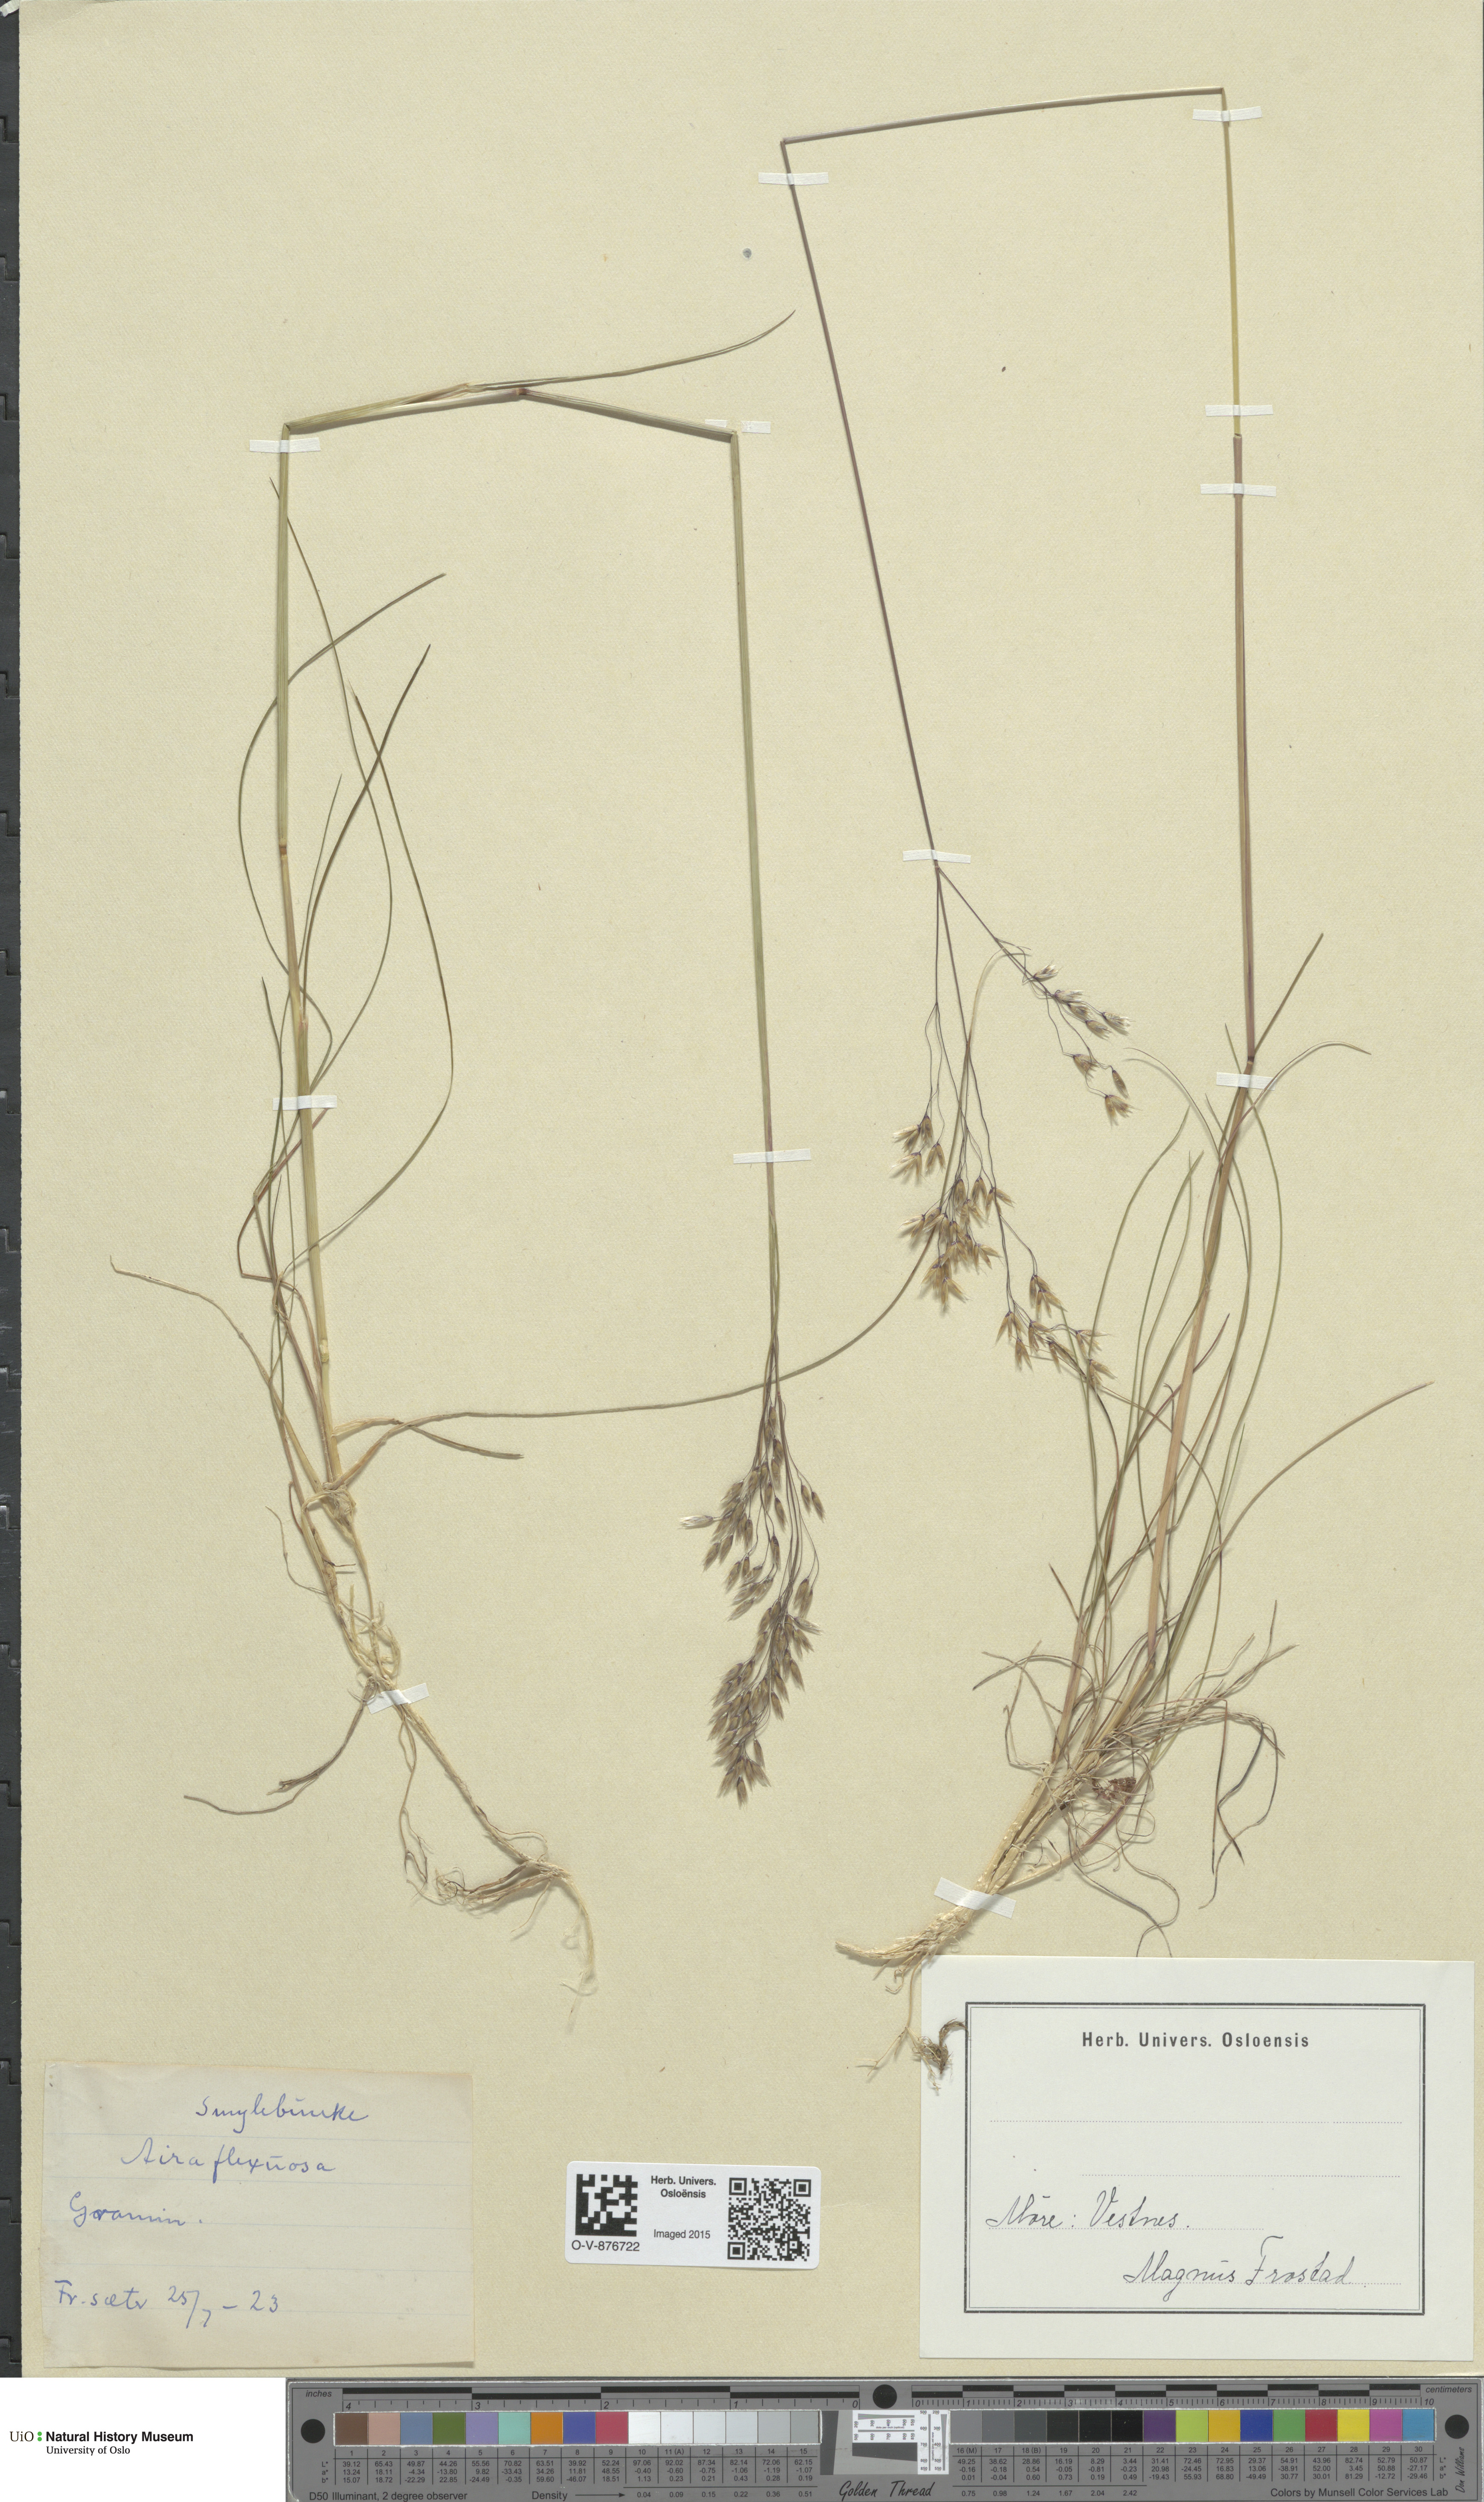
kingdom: Plantae
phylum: Tracheophyta
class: Liliopsida
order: Poales
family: Poaceae
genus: Avenella
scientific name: Avenella flexuosa
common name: Wavy hairgrass
